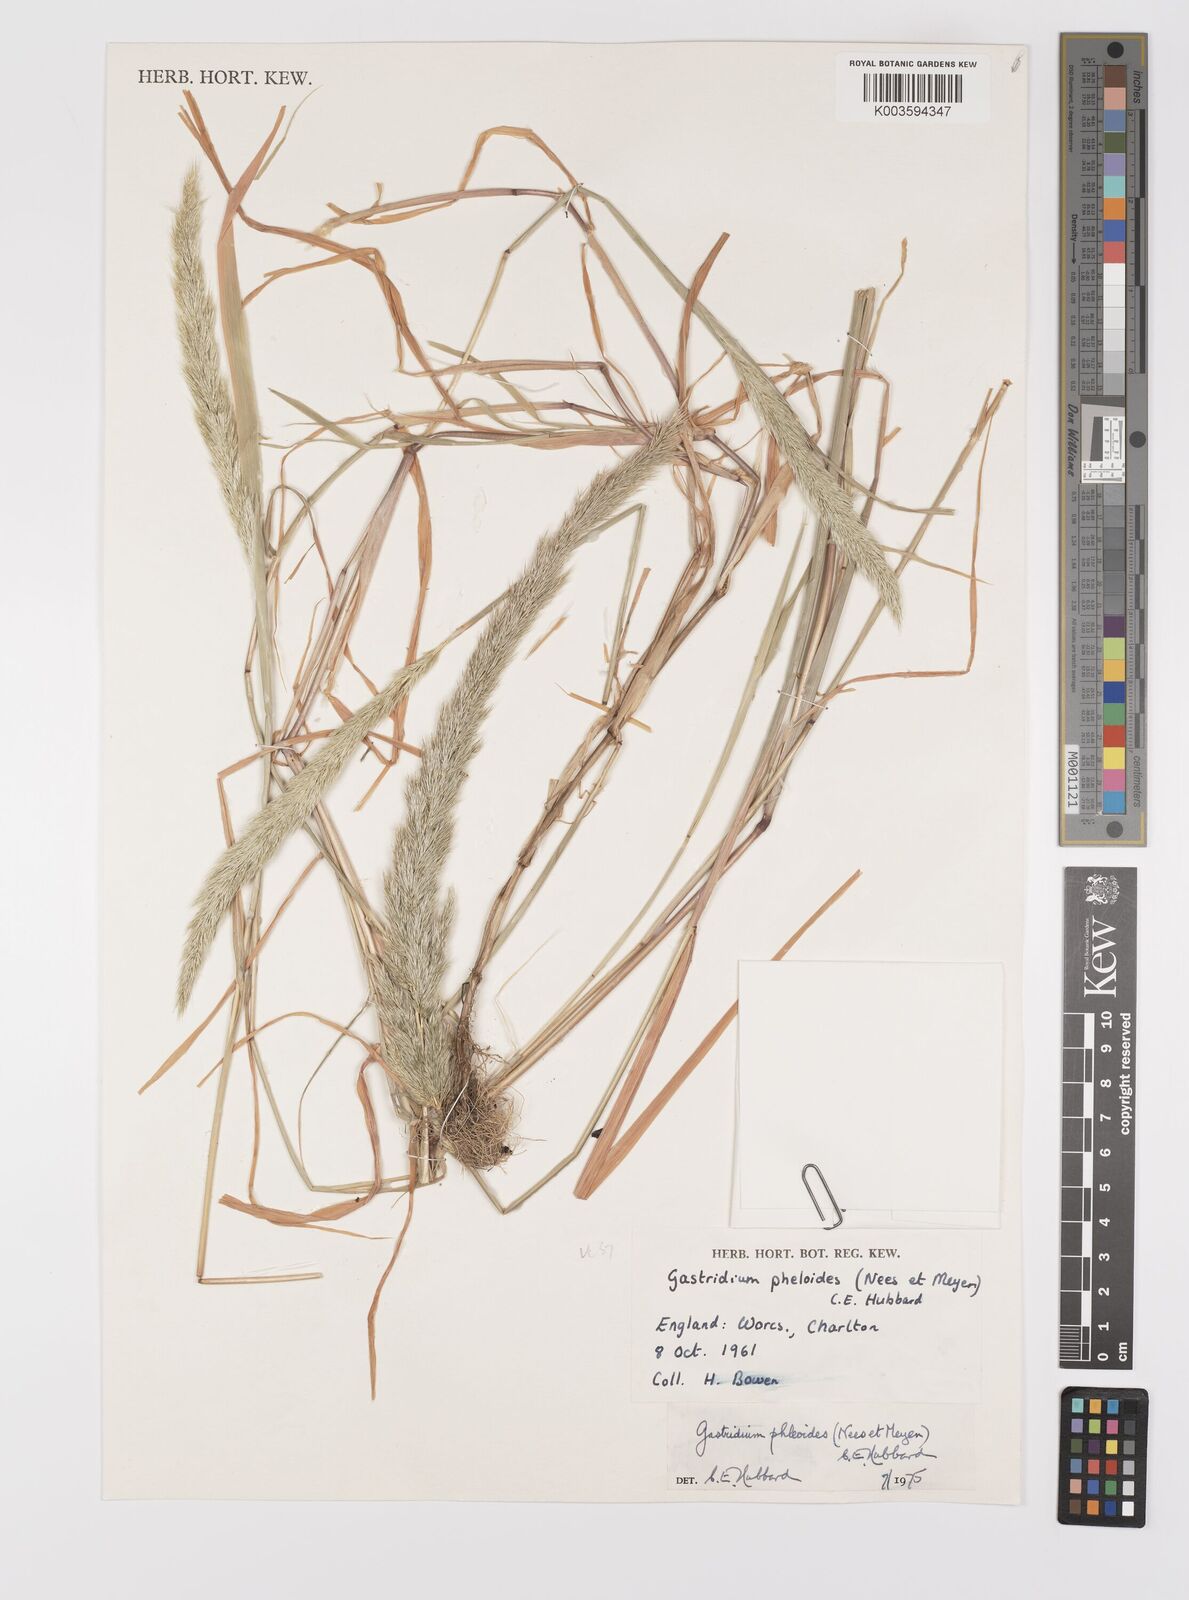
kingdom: Plantae
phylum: Tracheophyta
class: Liliopsida
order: Poales
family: Poaceae
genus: Gastridium
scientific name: Gastridium phleoides
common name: Nit grass
